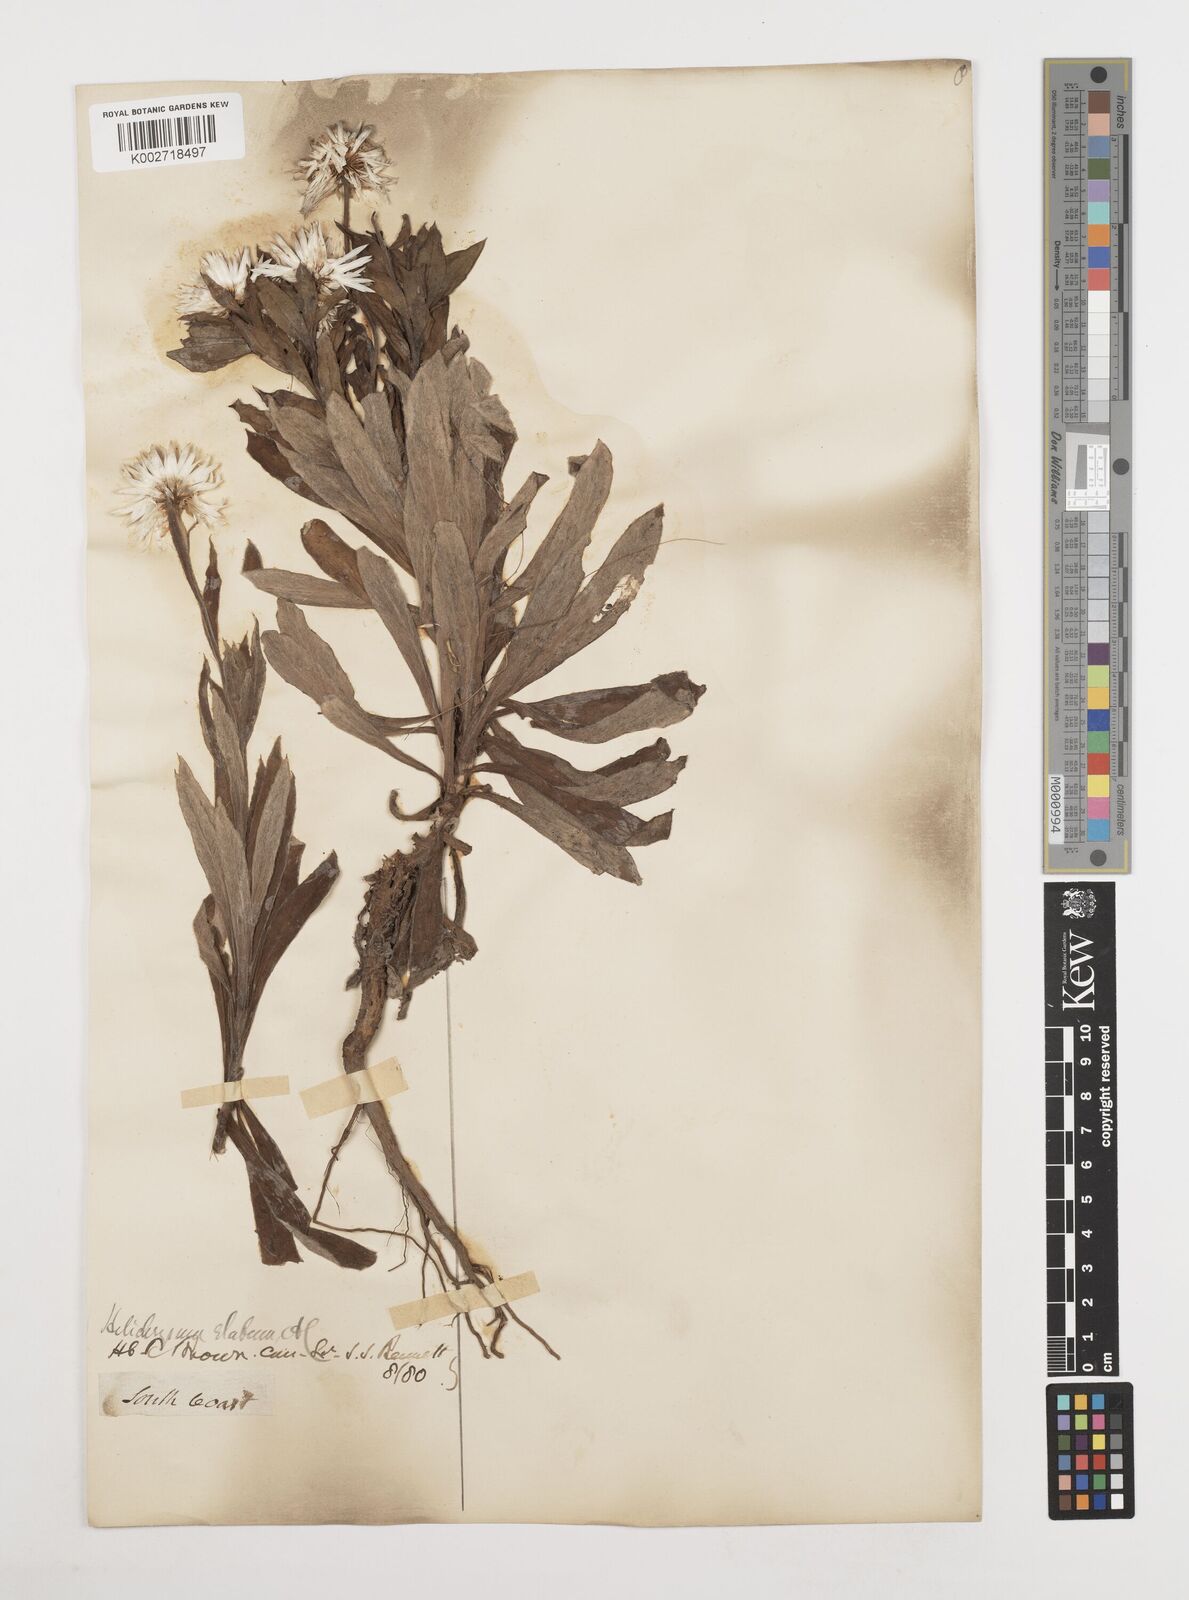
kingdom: Plantae
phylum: Tracheophyta
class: Magnoliopsida
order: Asterales
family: Asteraceae
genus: Leucozoma
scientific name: Leucozoma elatum
